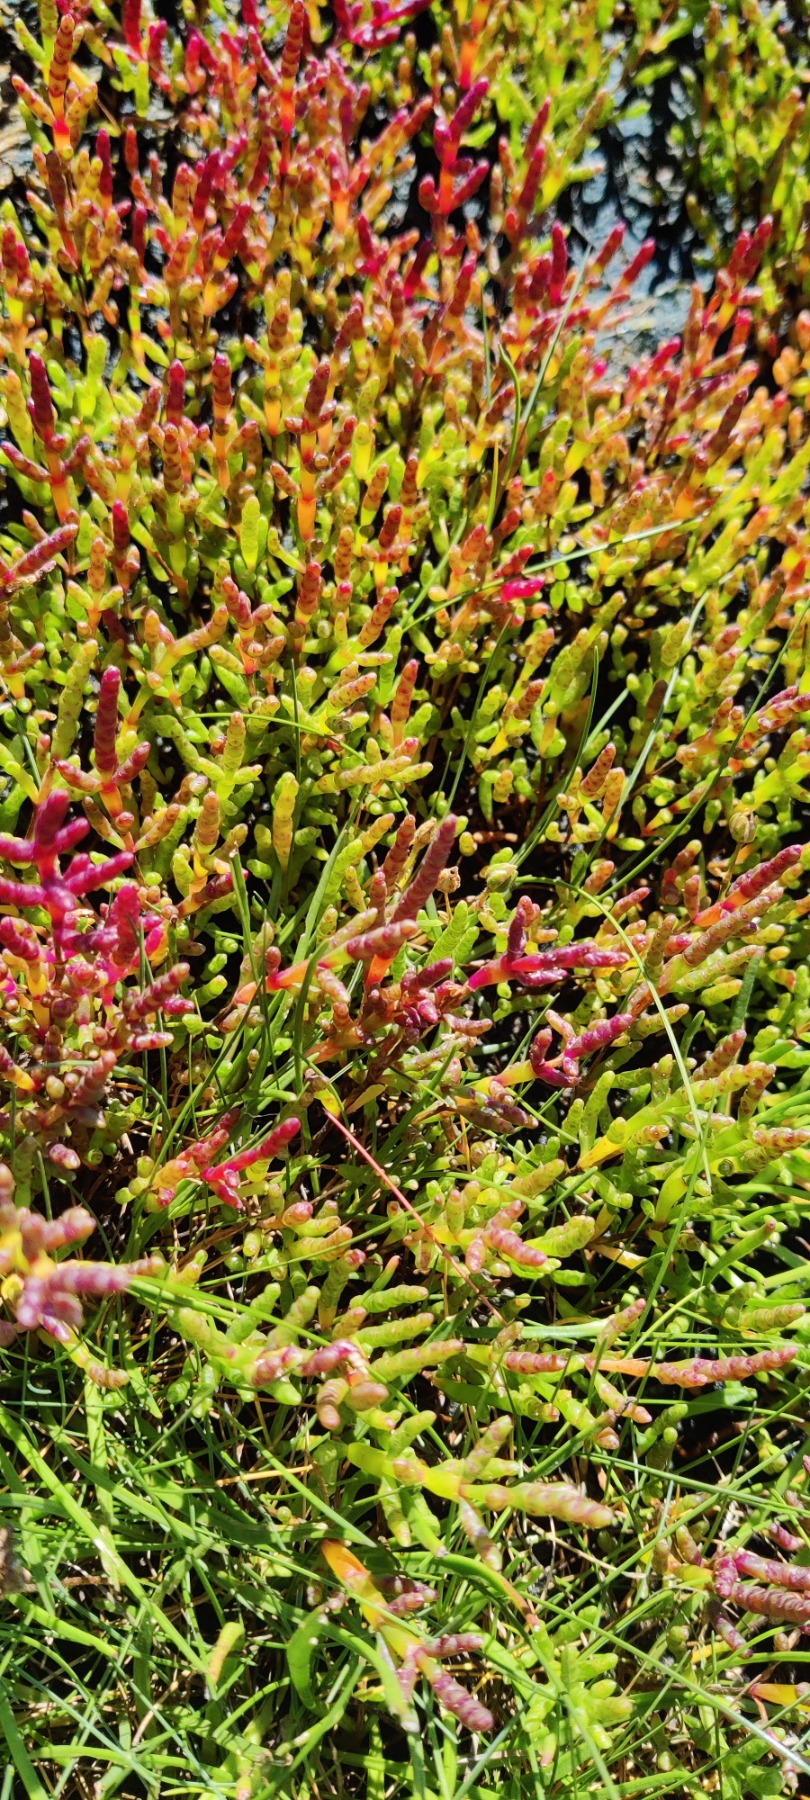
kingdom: Plantae
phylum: Tracheophyta
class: Magnoliopsida
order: Caryophyllales
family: Amaranthaceae
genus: Salicornia
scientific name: Salicornia europaea
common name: Almindelig salturt
